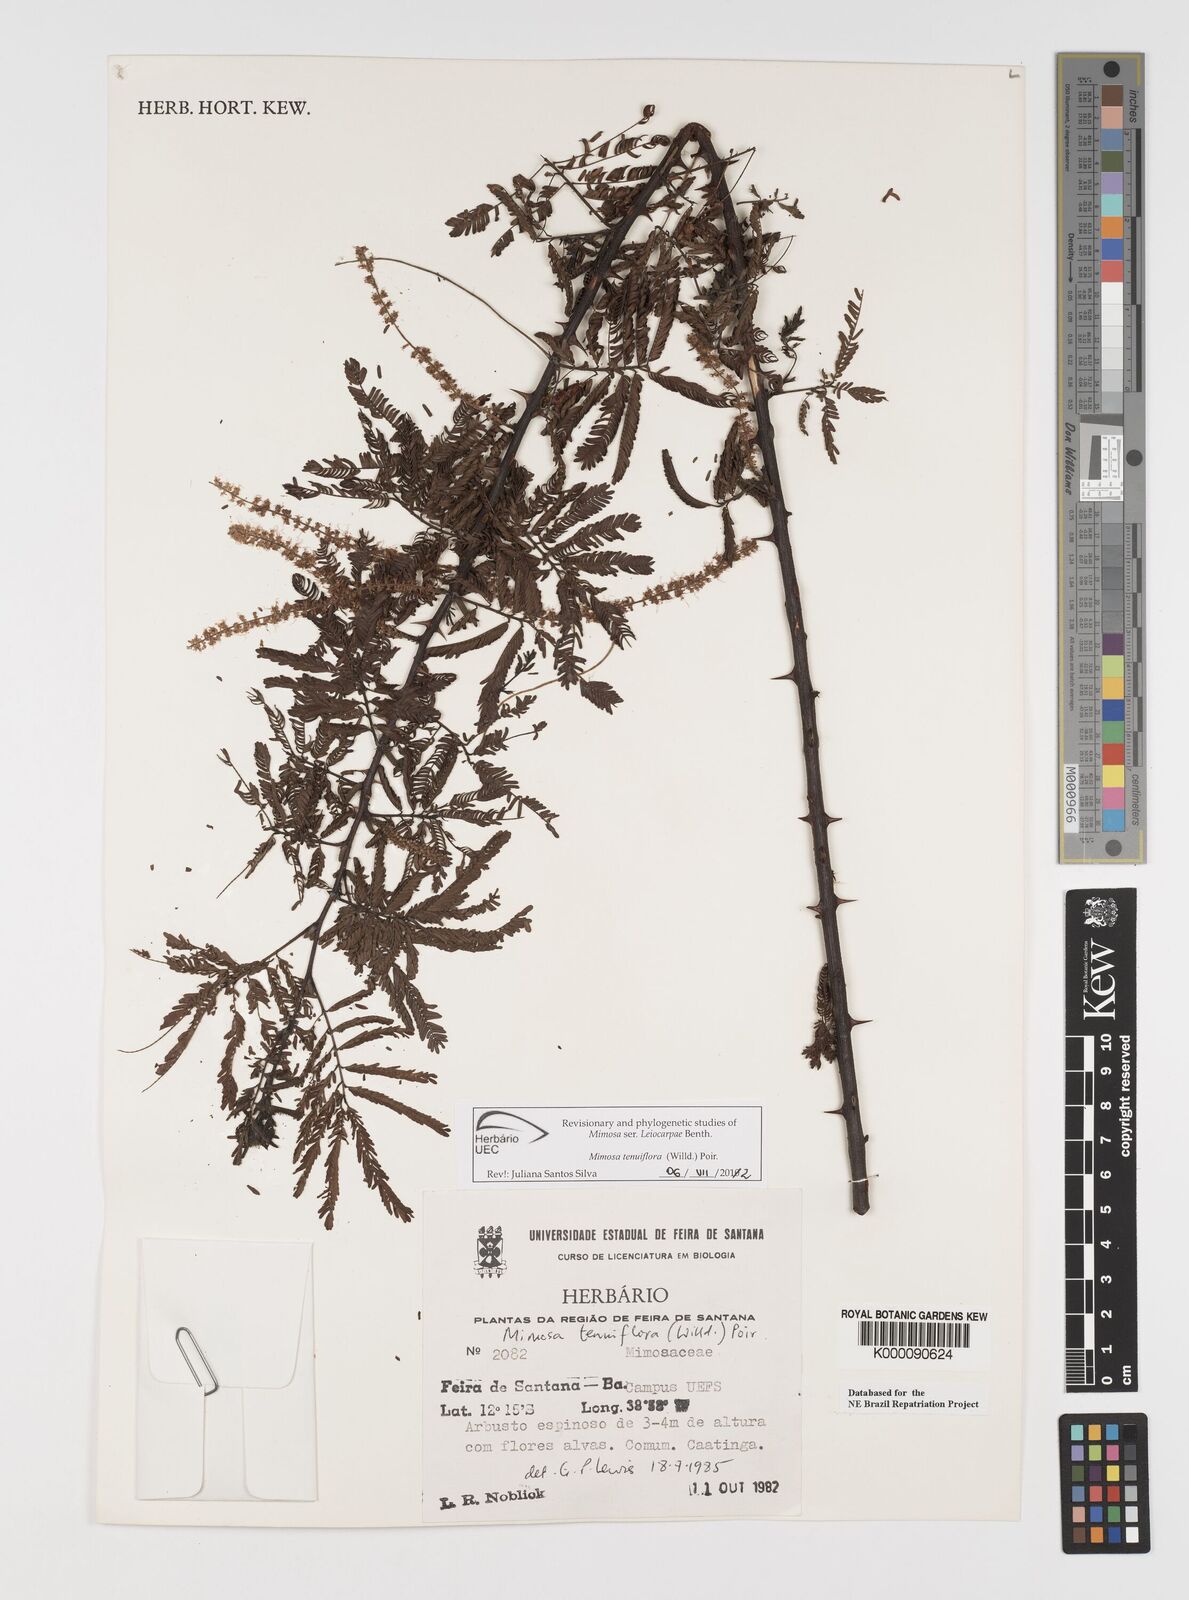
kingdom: Plantae
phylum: Tracheophyta
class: Magnoliopsida
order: Fabales
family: Fabaceae
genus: Mimosa
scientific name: Mimosa tenuiflora
